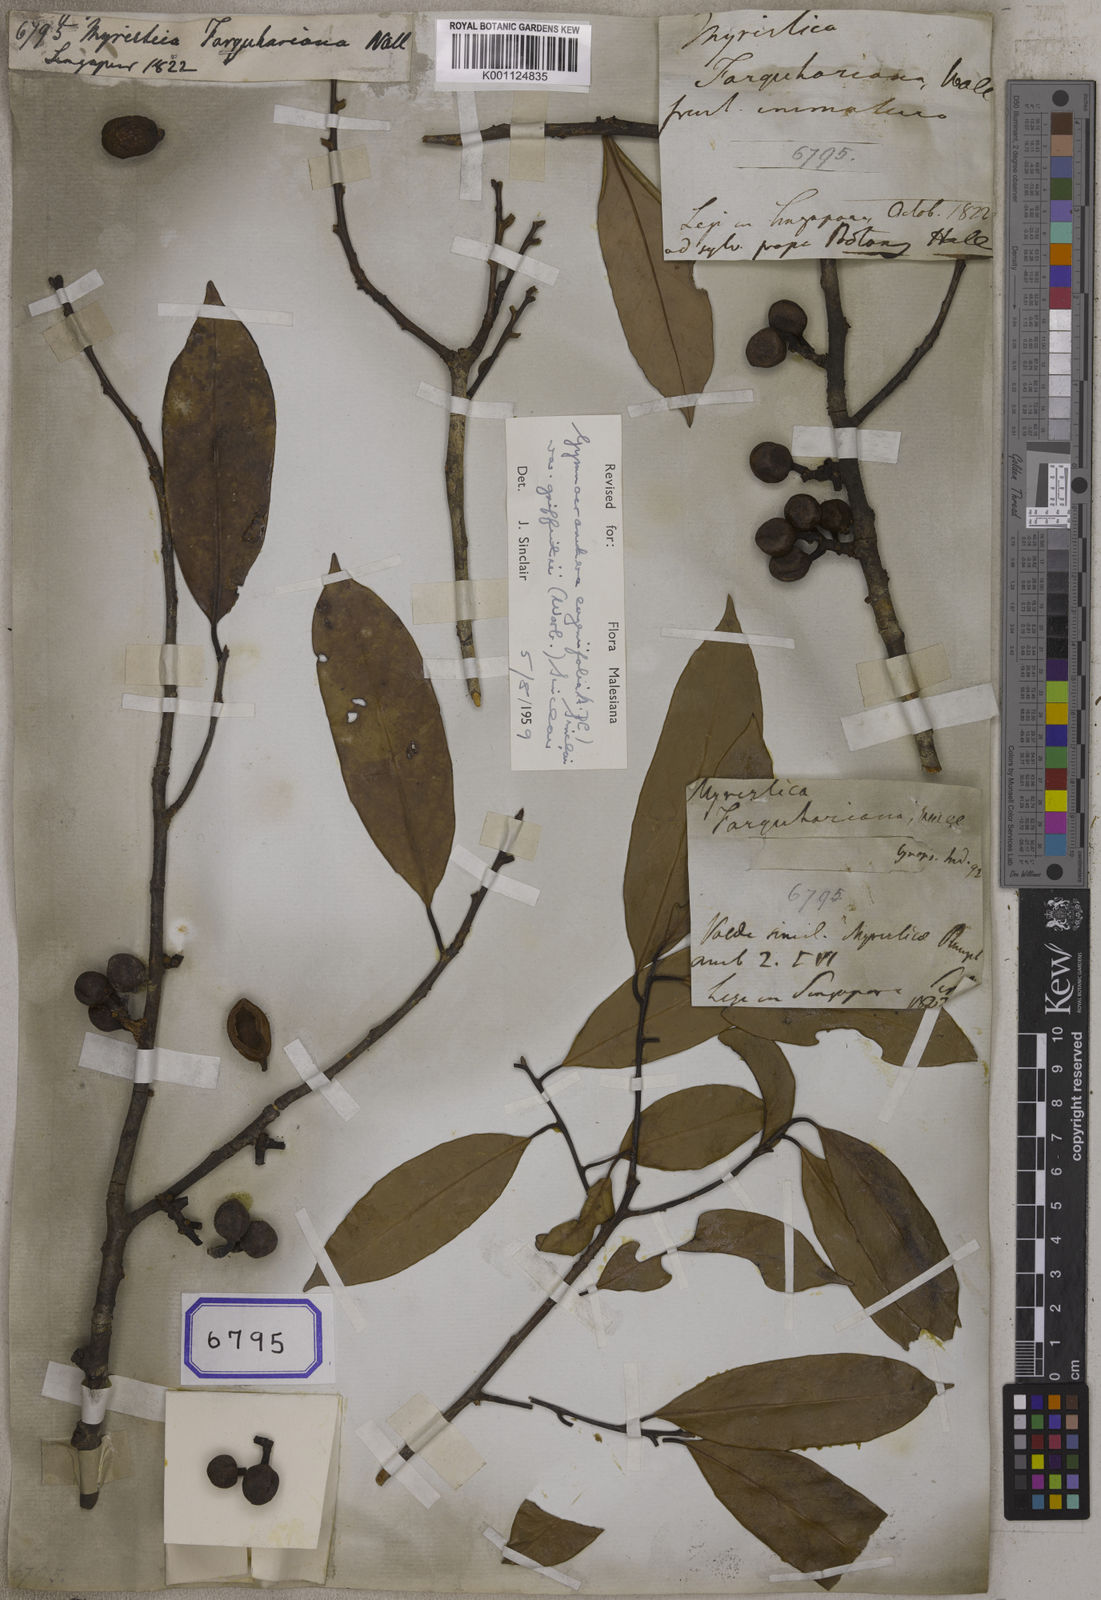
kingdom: Plantae
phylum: Tracheophyta
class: Magnoliopsida
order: Magnoliales
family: Myristicaceae
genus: Myristica
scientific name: Myristica
